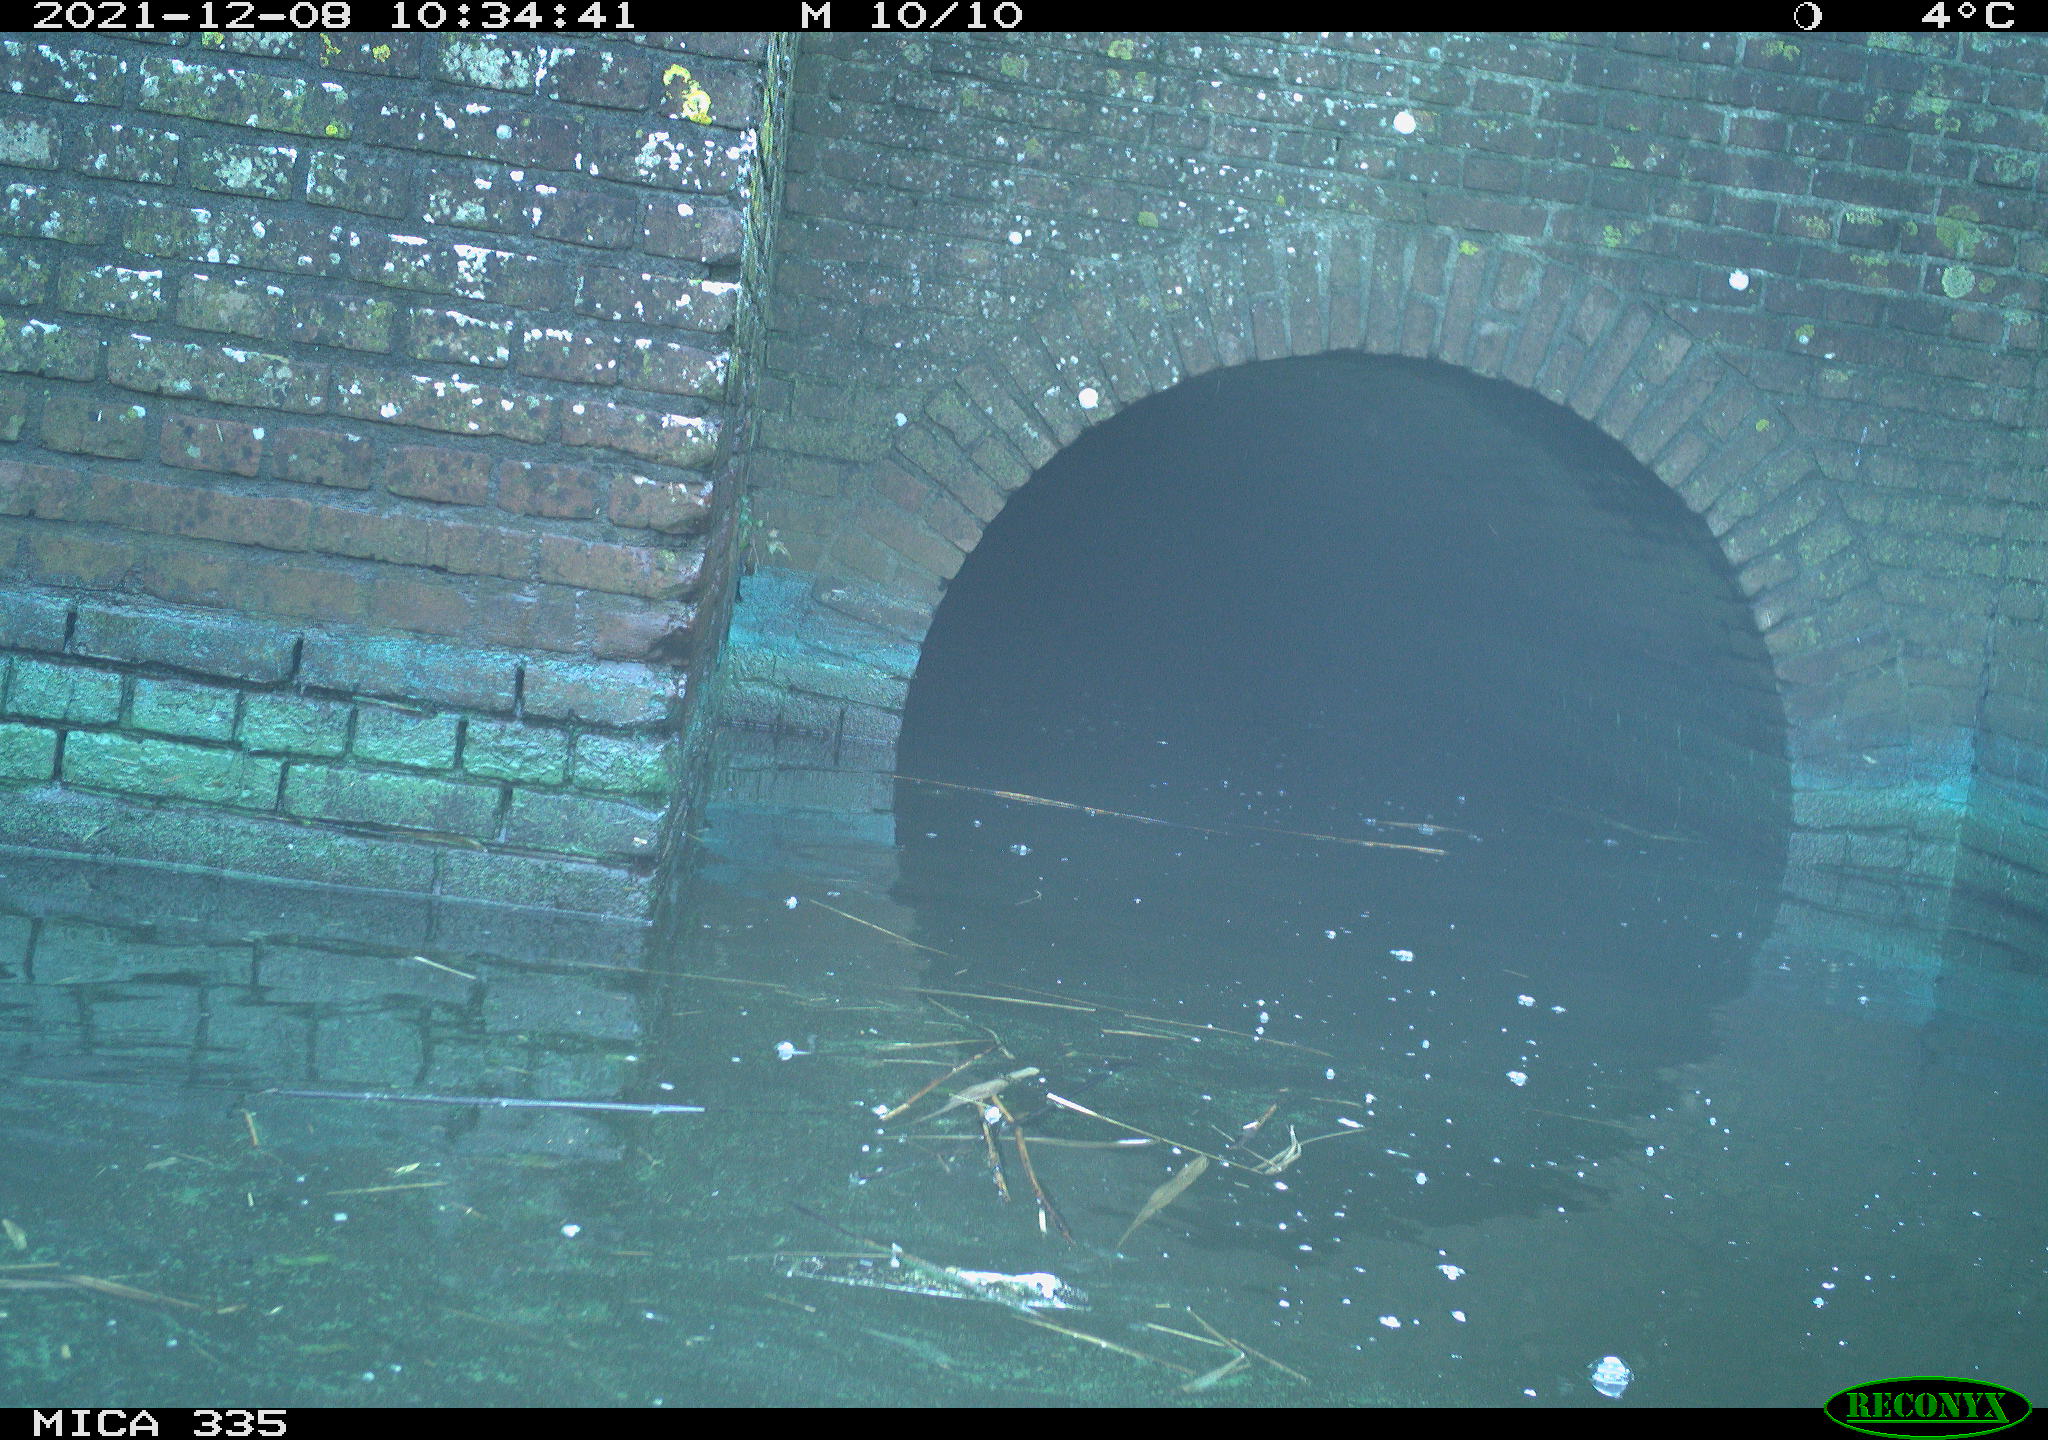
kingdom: Animalia
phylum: Chordata
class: Aves
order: Gruiformes
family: Rallidae
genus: Gallinula
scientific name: Gallinula chloropus
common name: Common moorhen
